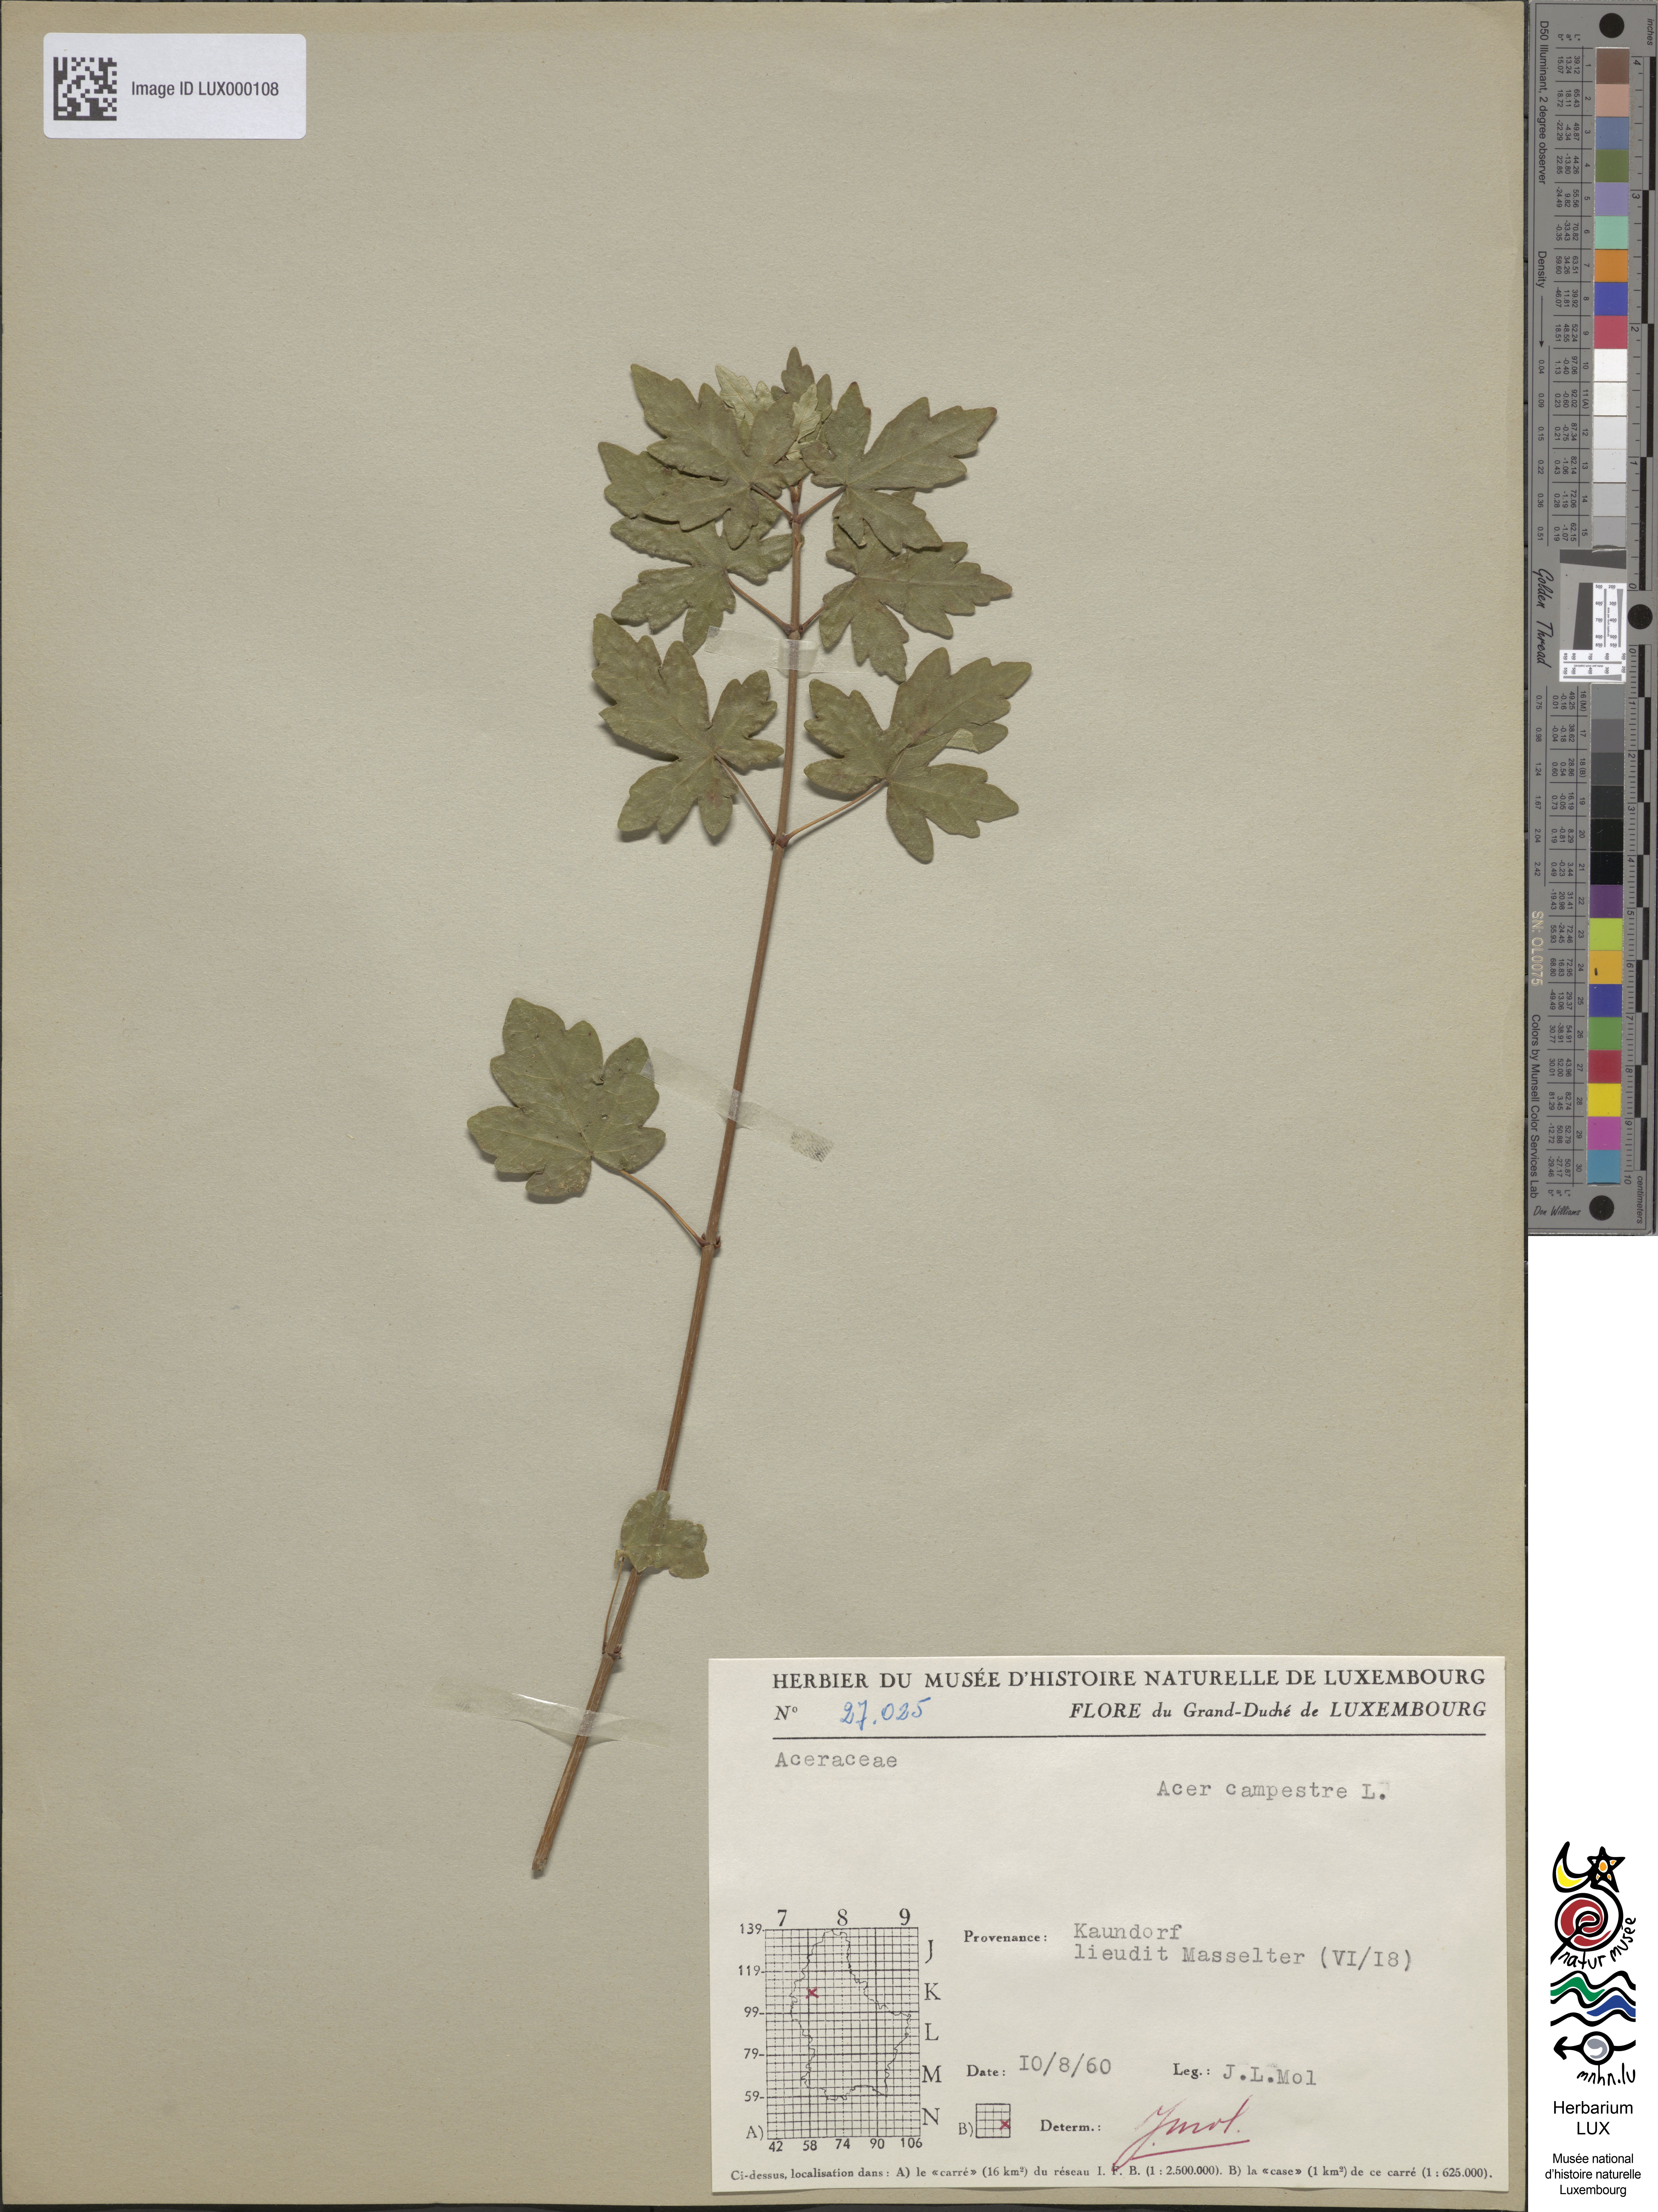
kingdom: Plantae
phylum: Tracheophyta
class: Magnoliopsida
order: Sapindales
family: Sapindaceae
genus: Acer
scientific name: Acer campestre
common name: Field maple
